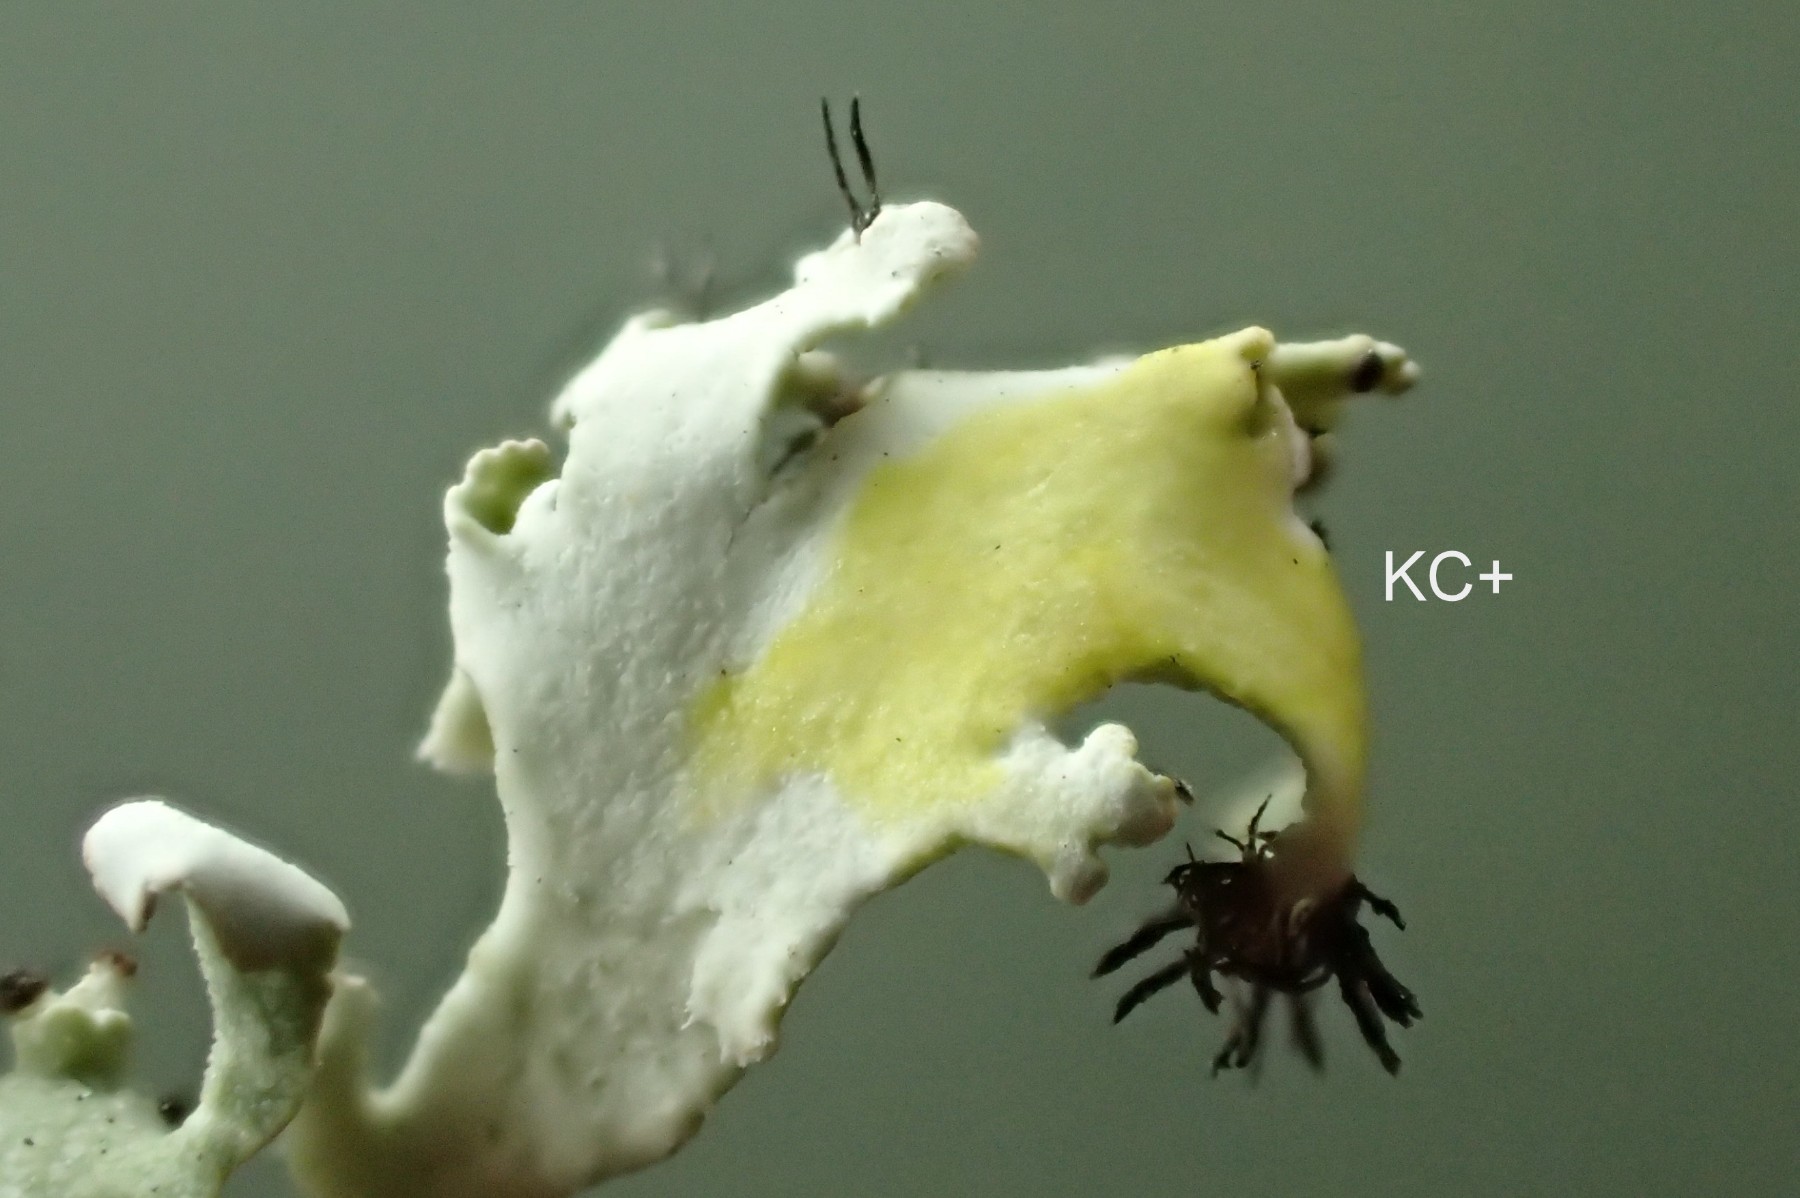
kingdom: Fungi
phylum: Ascomycota
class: Lecanoromycetes
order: Lecanorales
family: Cladoniaceae
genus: Cladonia
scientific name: Cladonia foliacea
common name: fliget bægerlav
